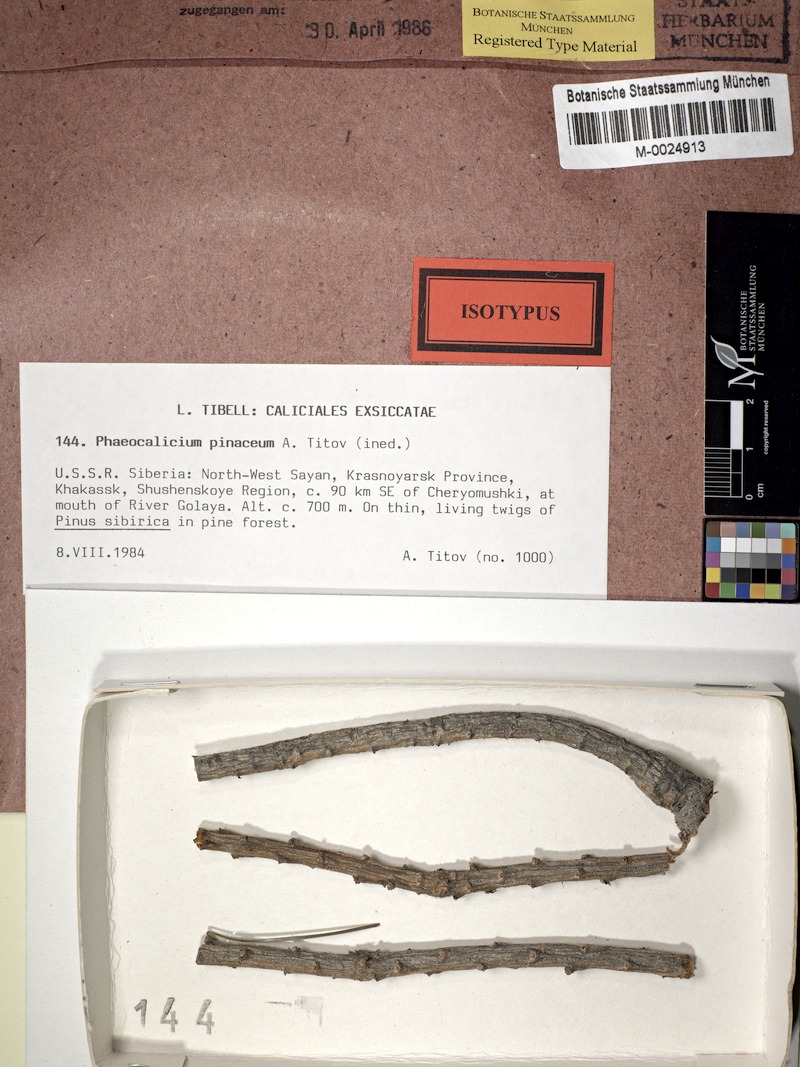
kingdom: Fungi
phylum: Ascomycota
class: Eurotiomycetes
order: Mycocaliciales
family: Mycocaliciaceae
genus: Phaeocalicium
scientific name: Phaeocalicium pinaceum
